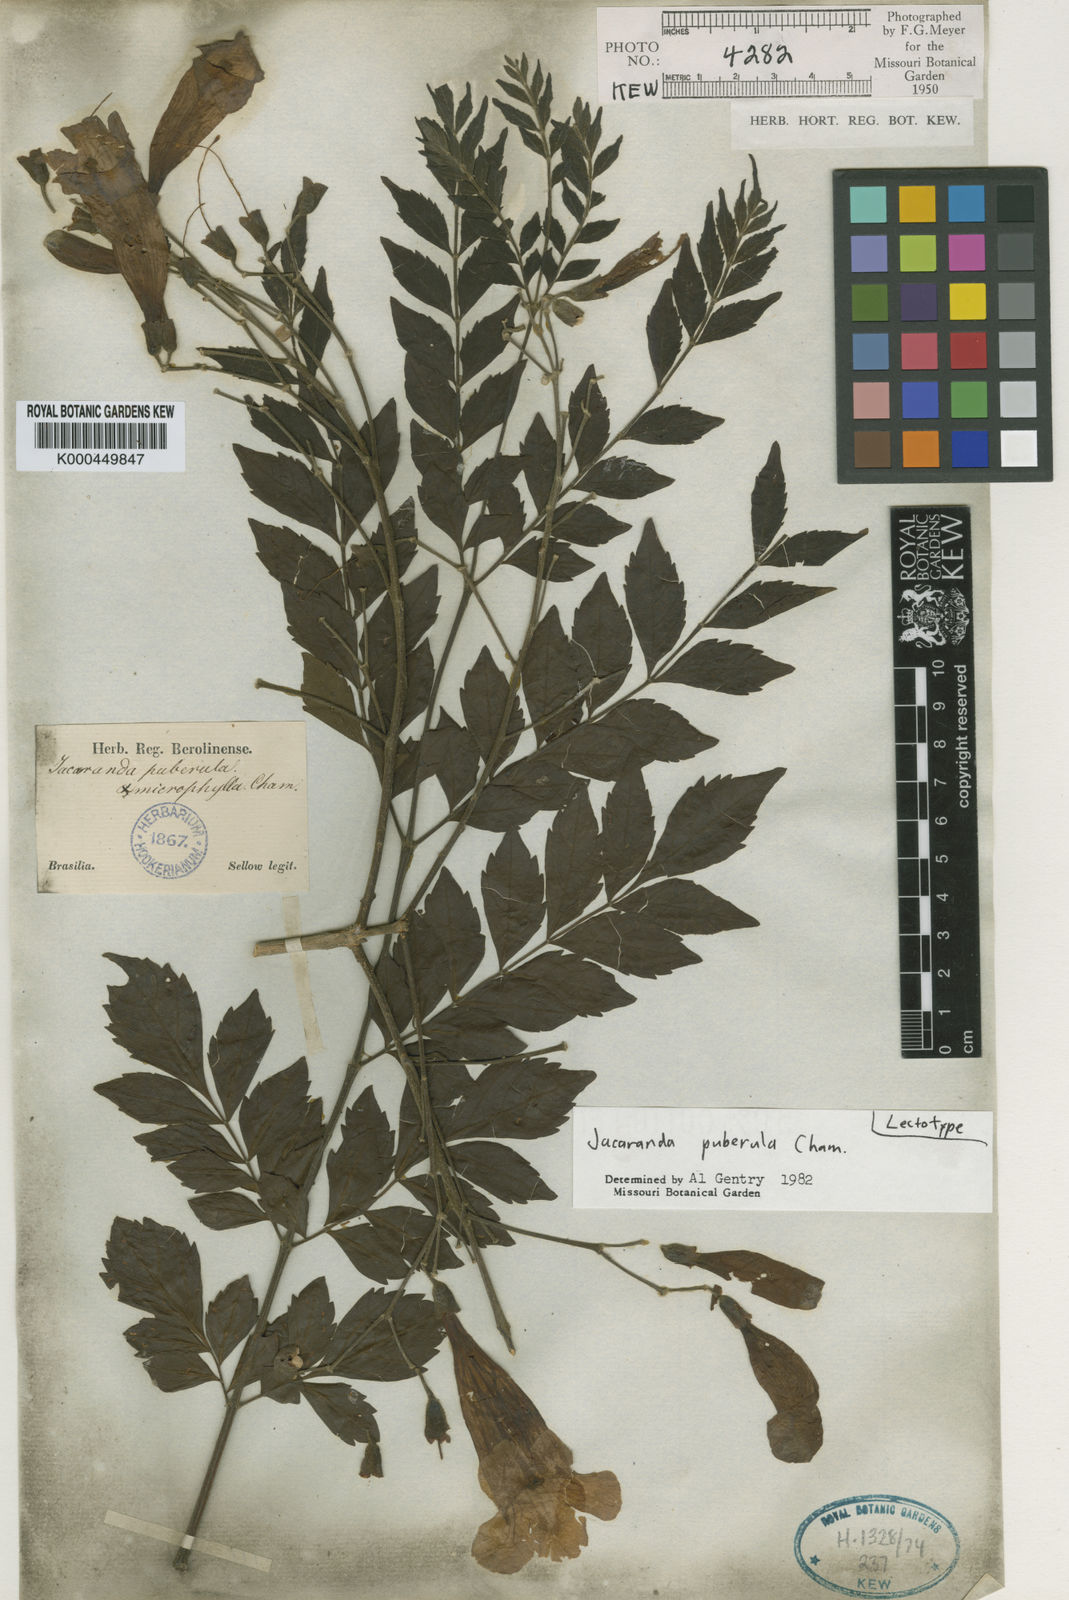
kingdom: Plantae
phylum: Tracheophyta
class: Magnoliopsida
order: Lamiales
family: Bignoniaceae
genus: Jacaranda
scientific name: Jacaranda puberula
